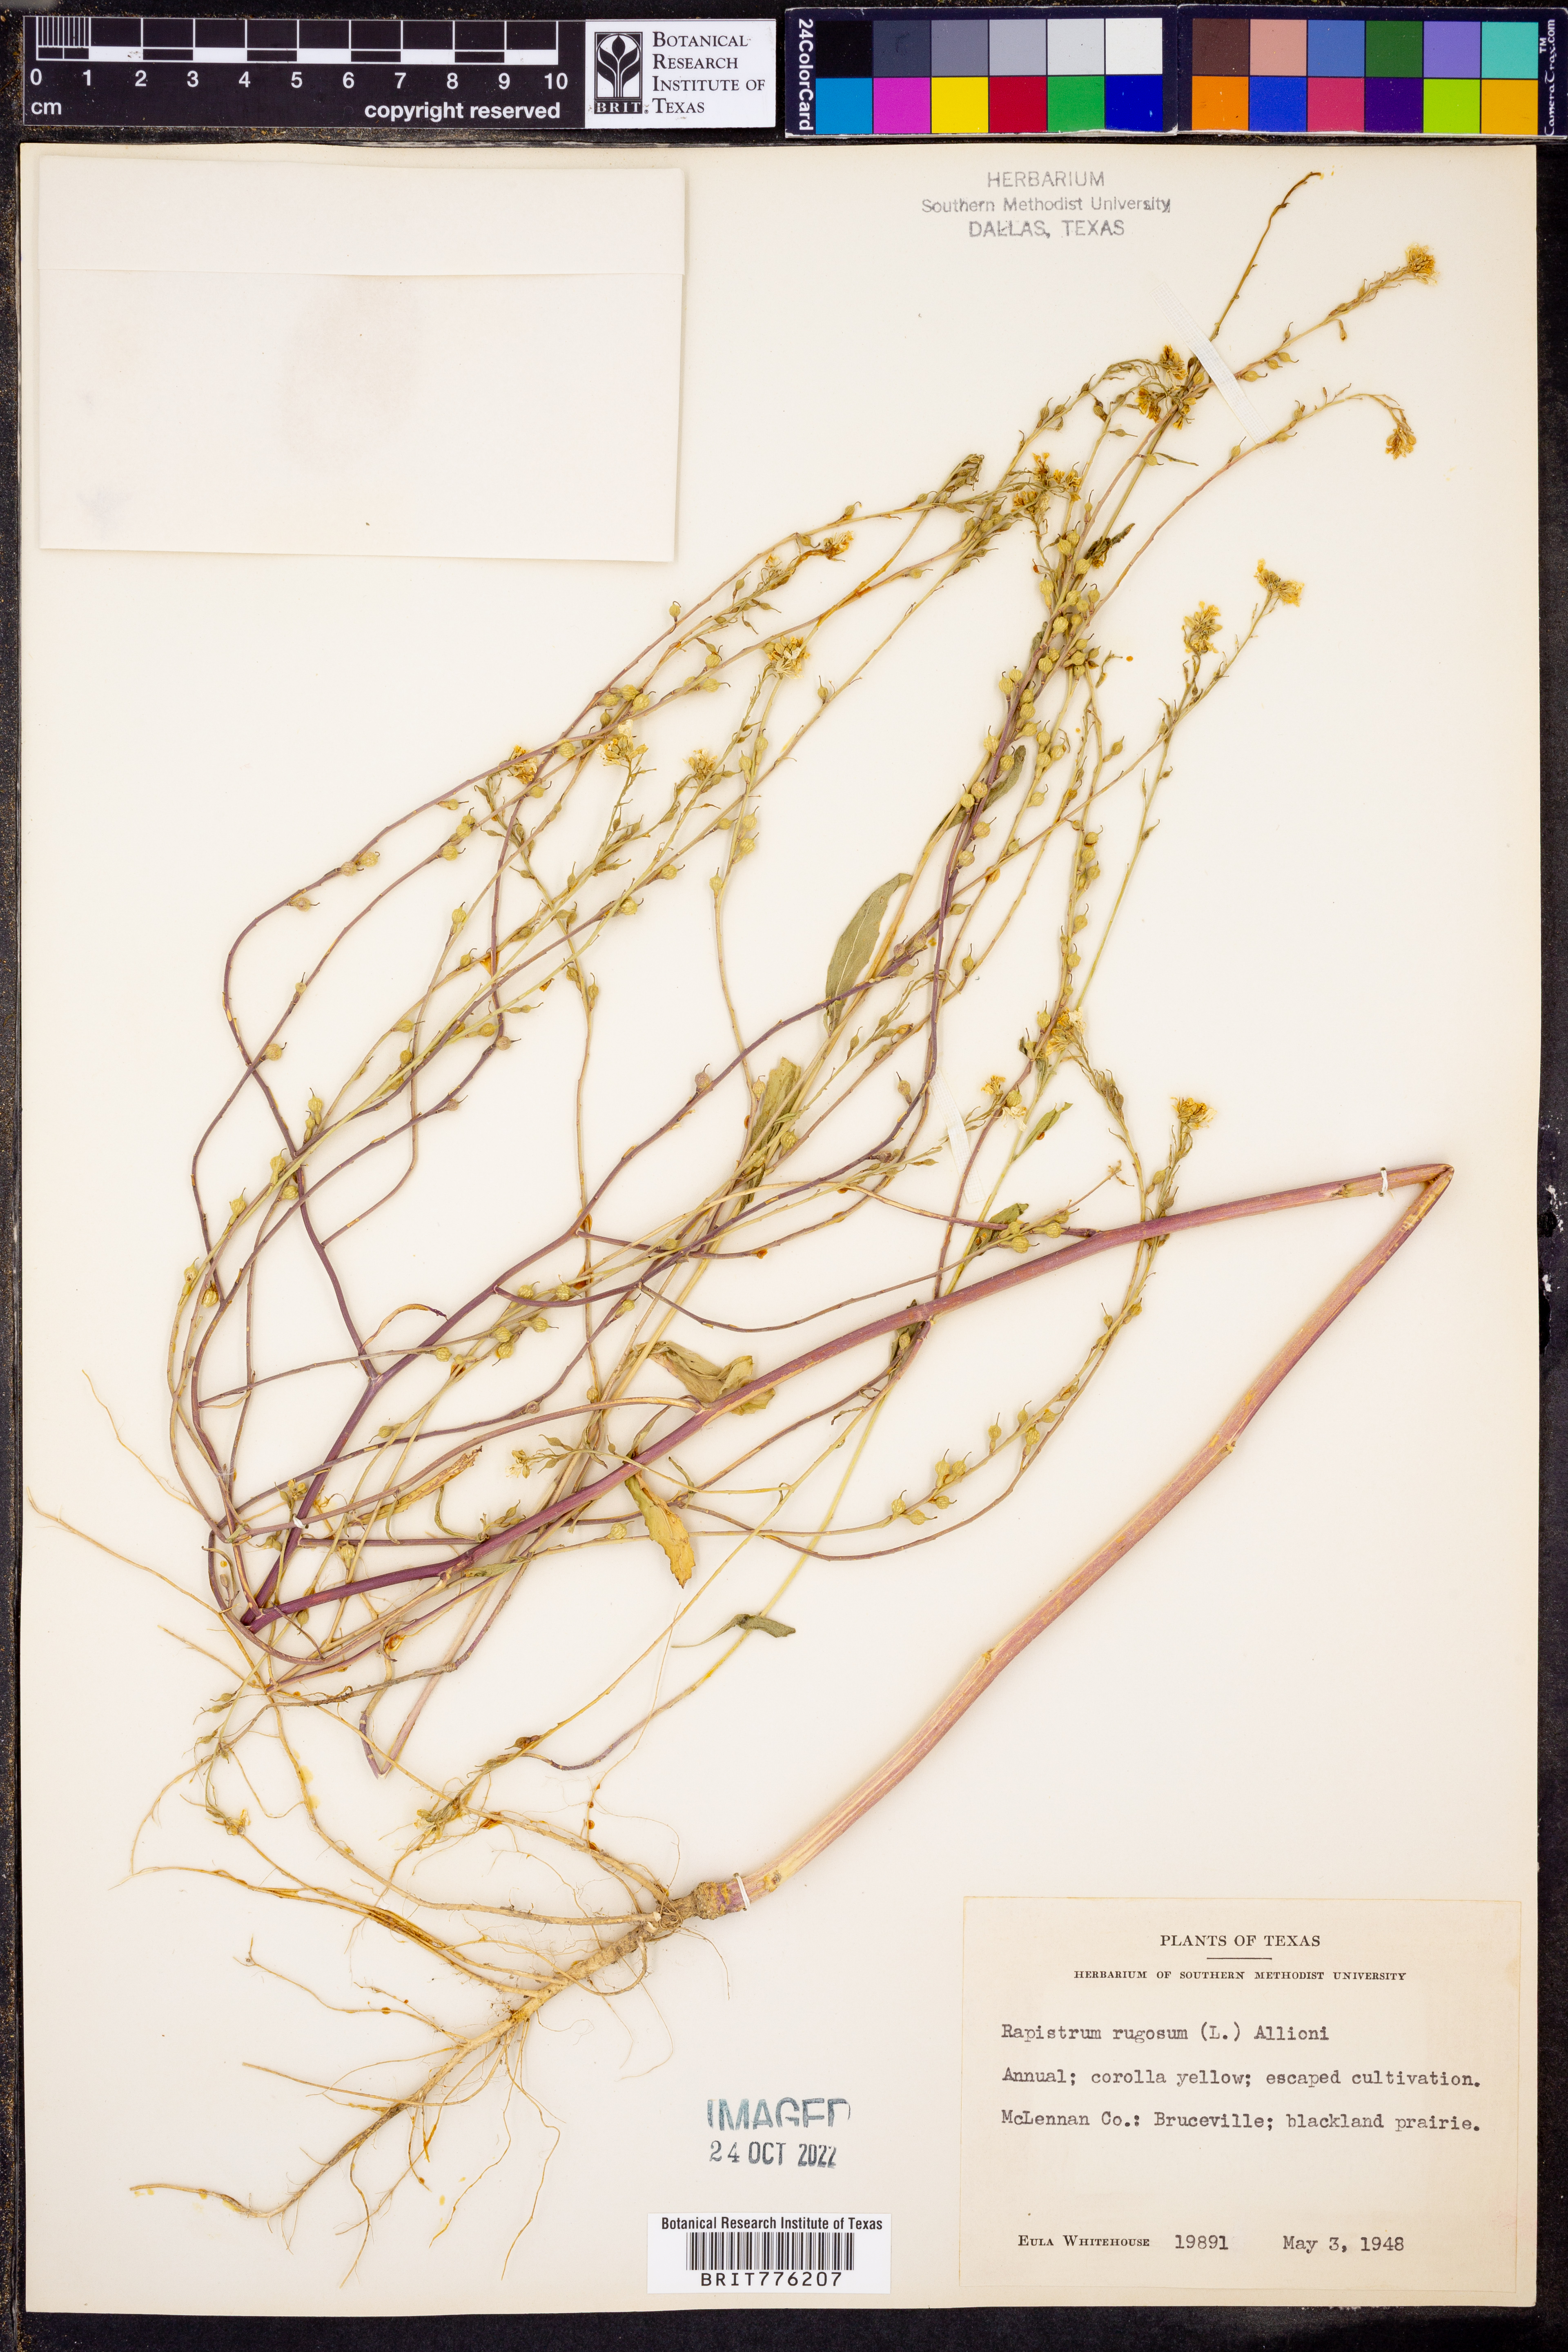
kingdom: Plantae
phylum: Tracheophyta
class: Magnoliopsida
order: Brassicales
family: Brassicaceae
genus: Rapistrum
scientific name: Rapistrum rugosum
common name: Annual bastardcabbage
